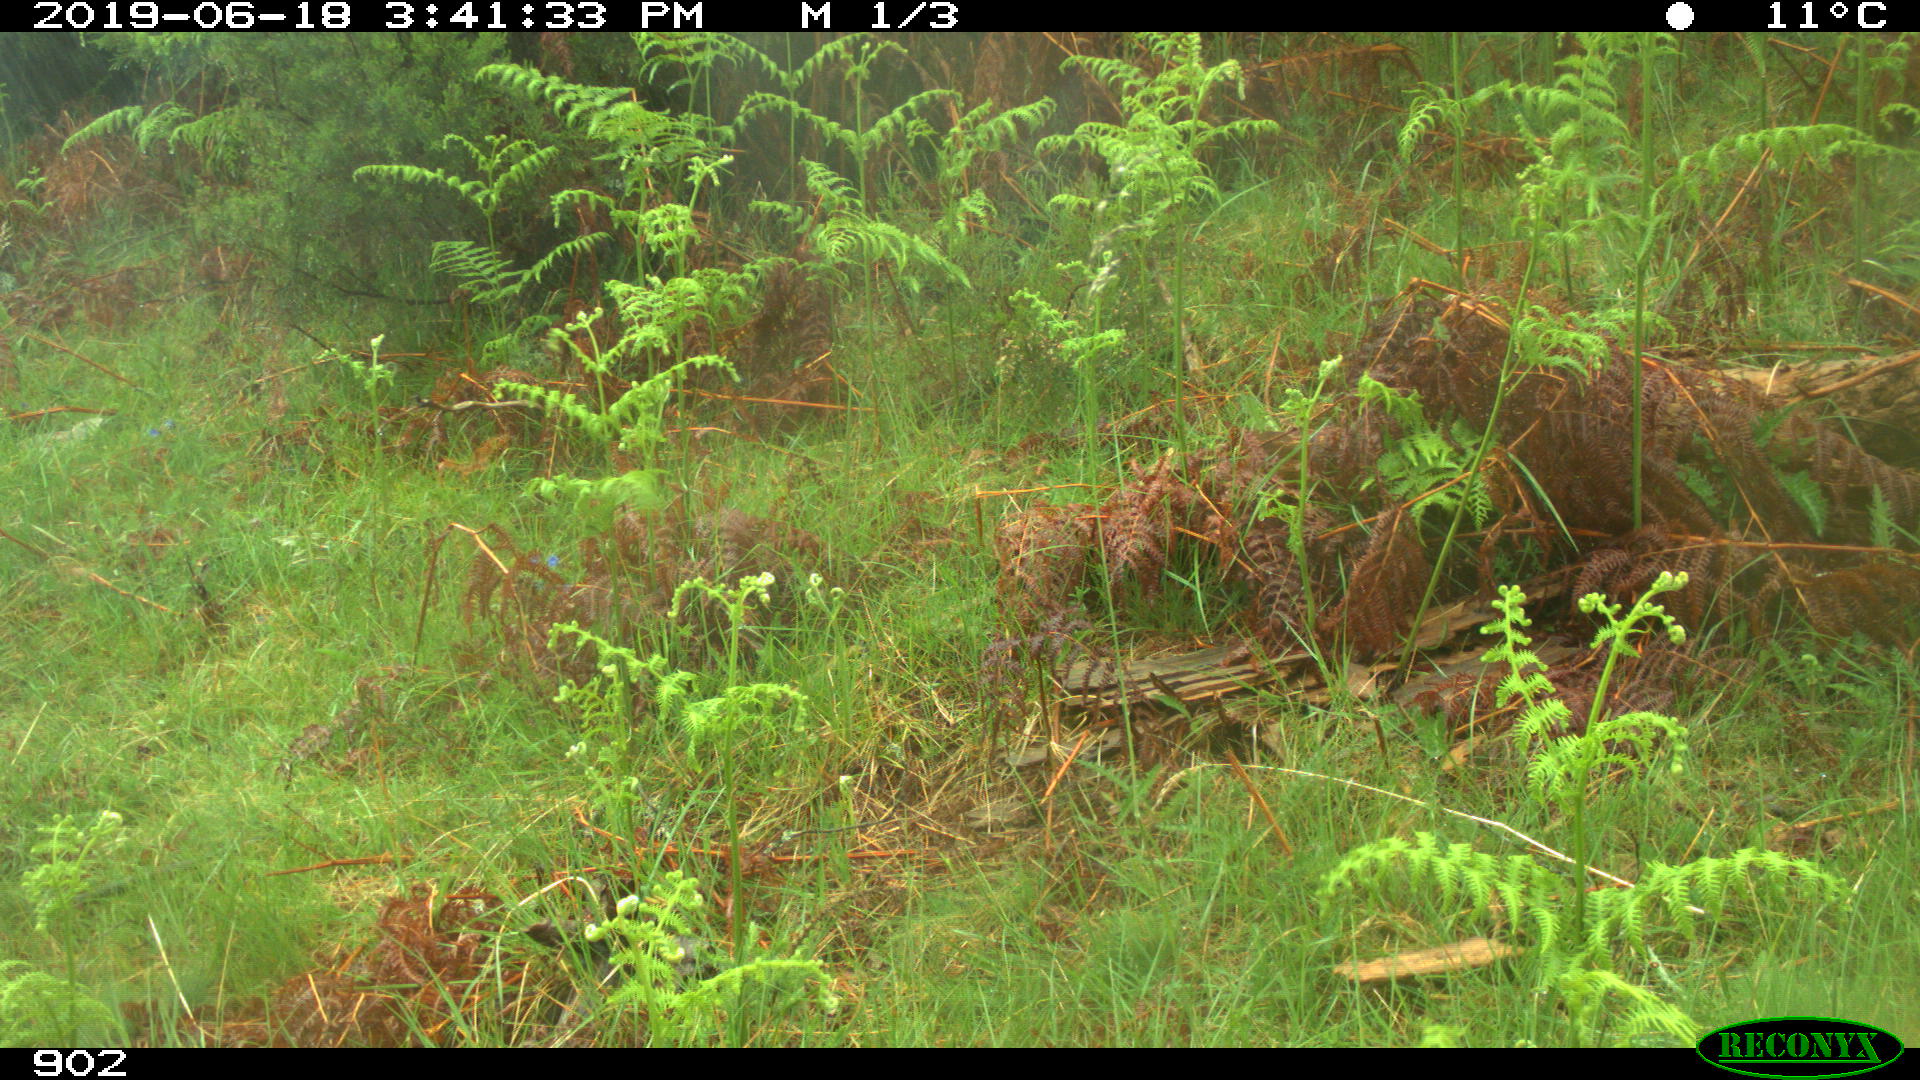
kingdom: Animalia
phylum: Chordata
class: Mammalia
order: Artiodactyla
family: Suidae
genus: Sus
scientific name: Sus scrofa
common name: Wild boar
